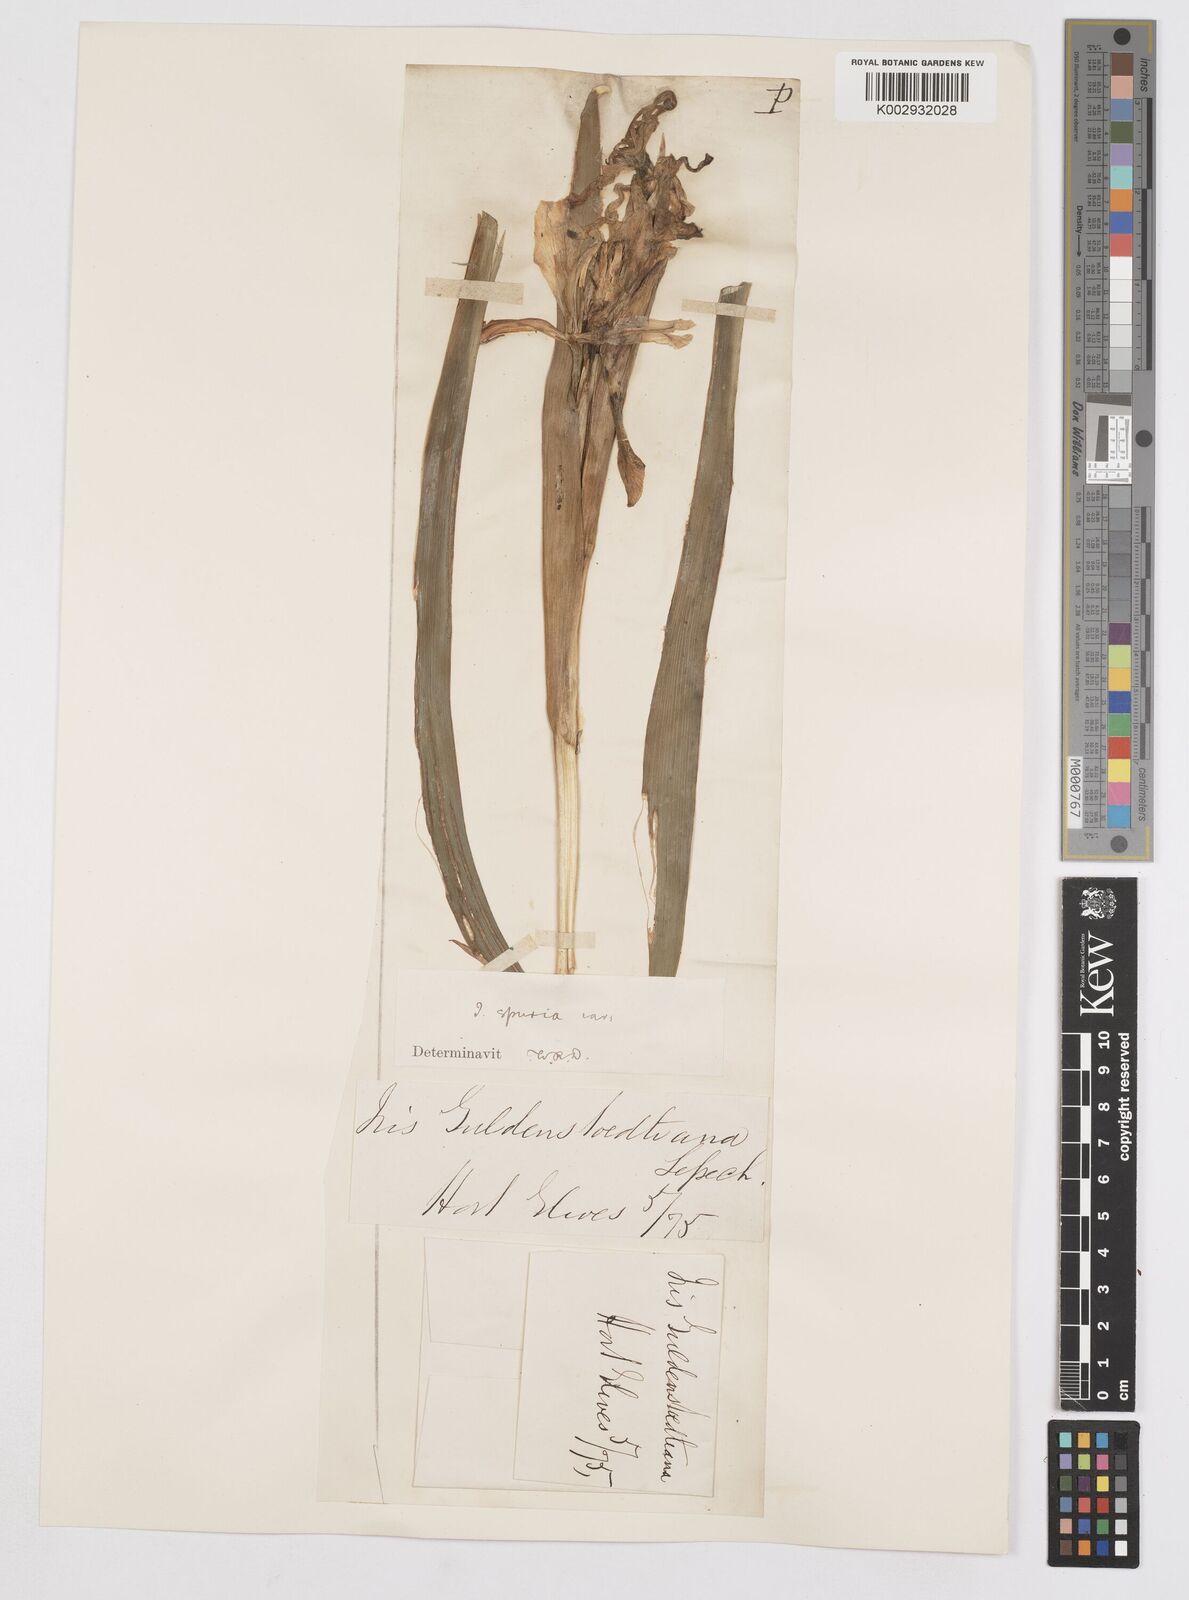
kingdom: Plantae
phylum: Tracheophyta
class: Liliopsida
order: Asparagales
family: Iridaceae
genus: Iris
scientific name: Iris halophila
